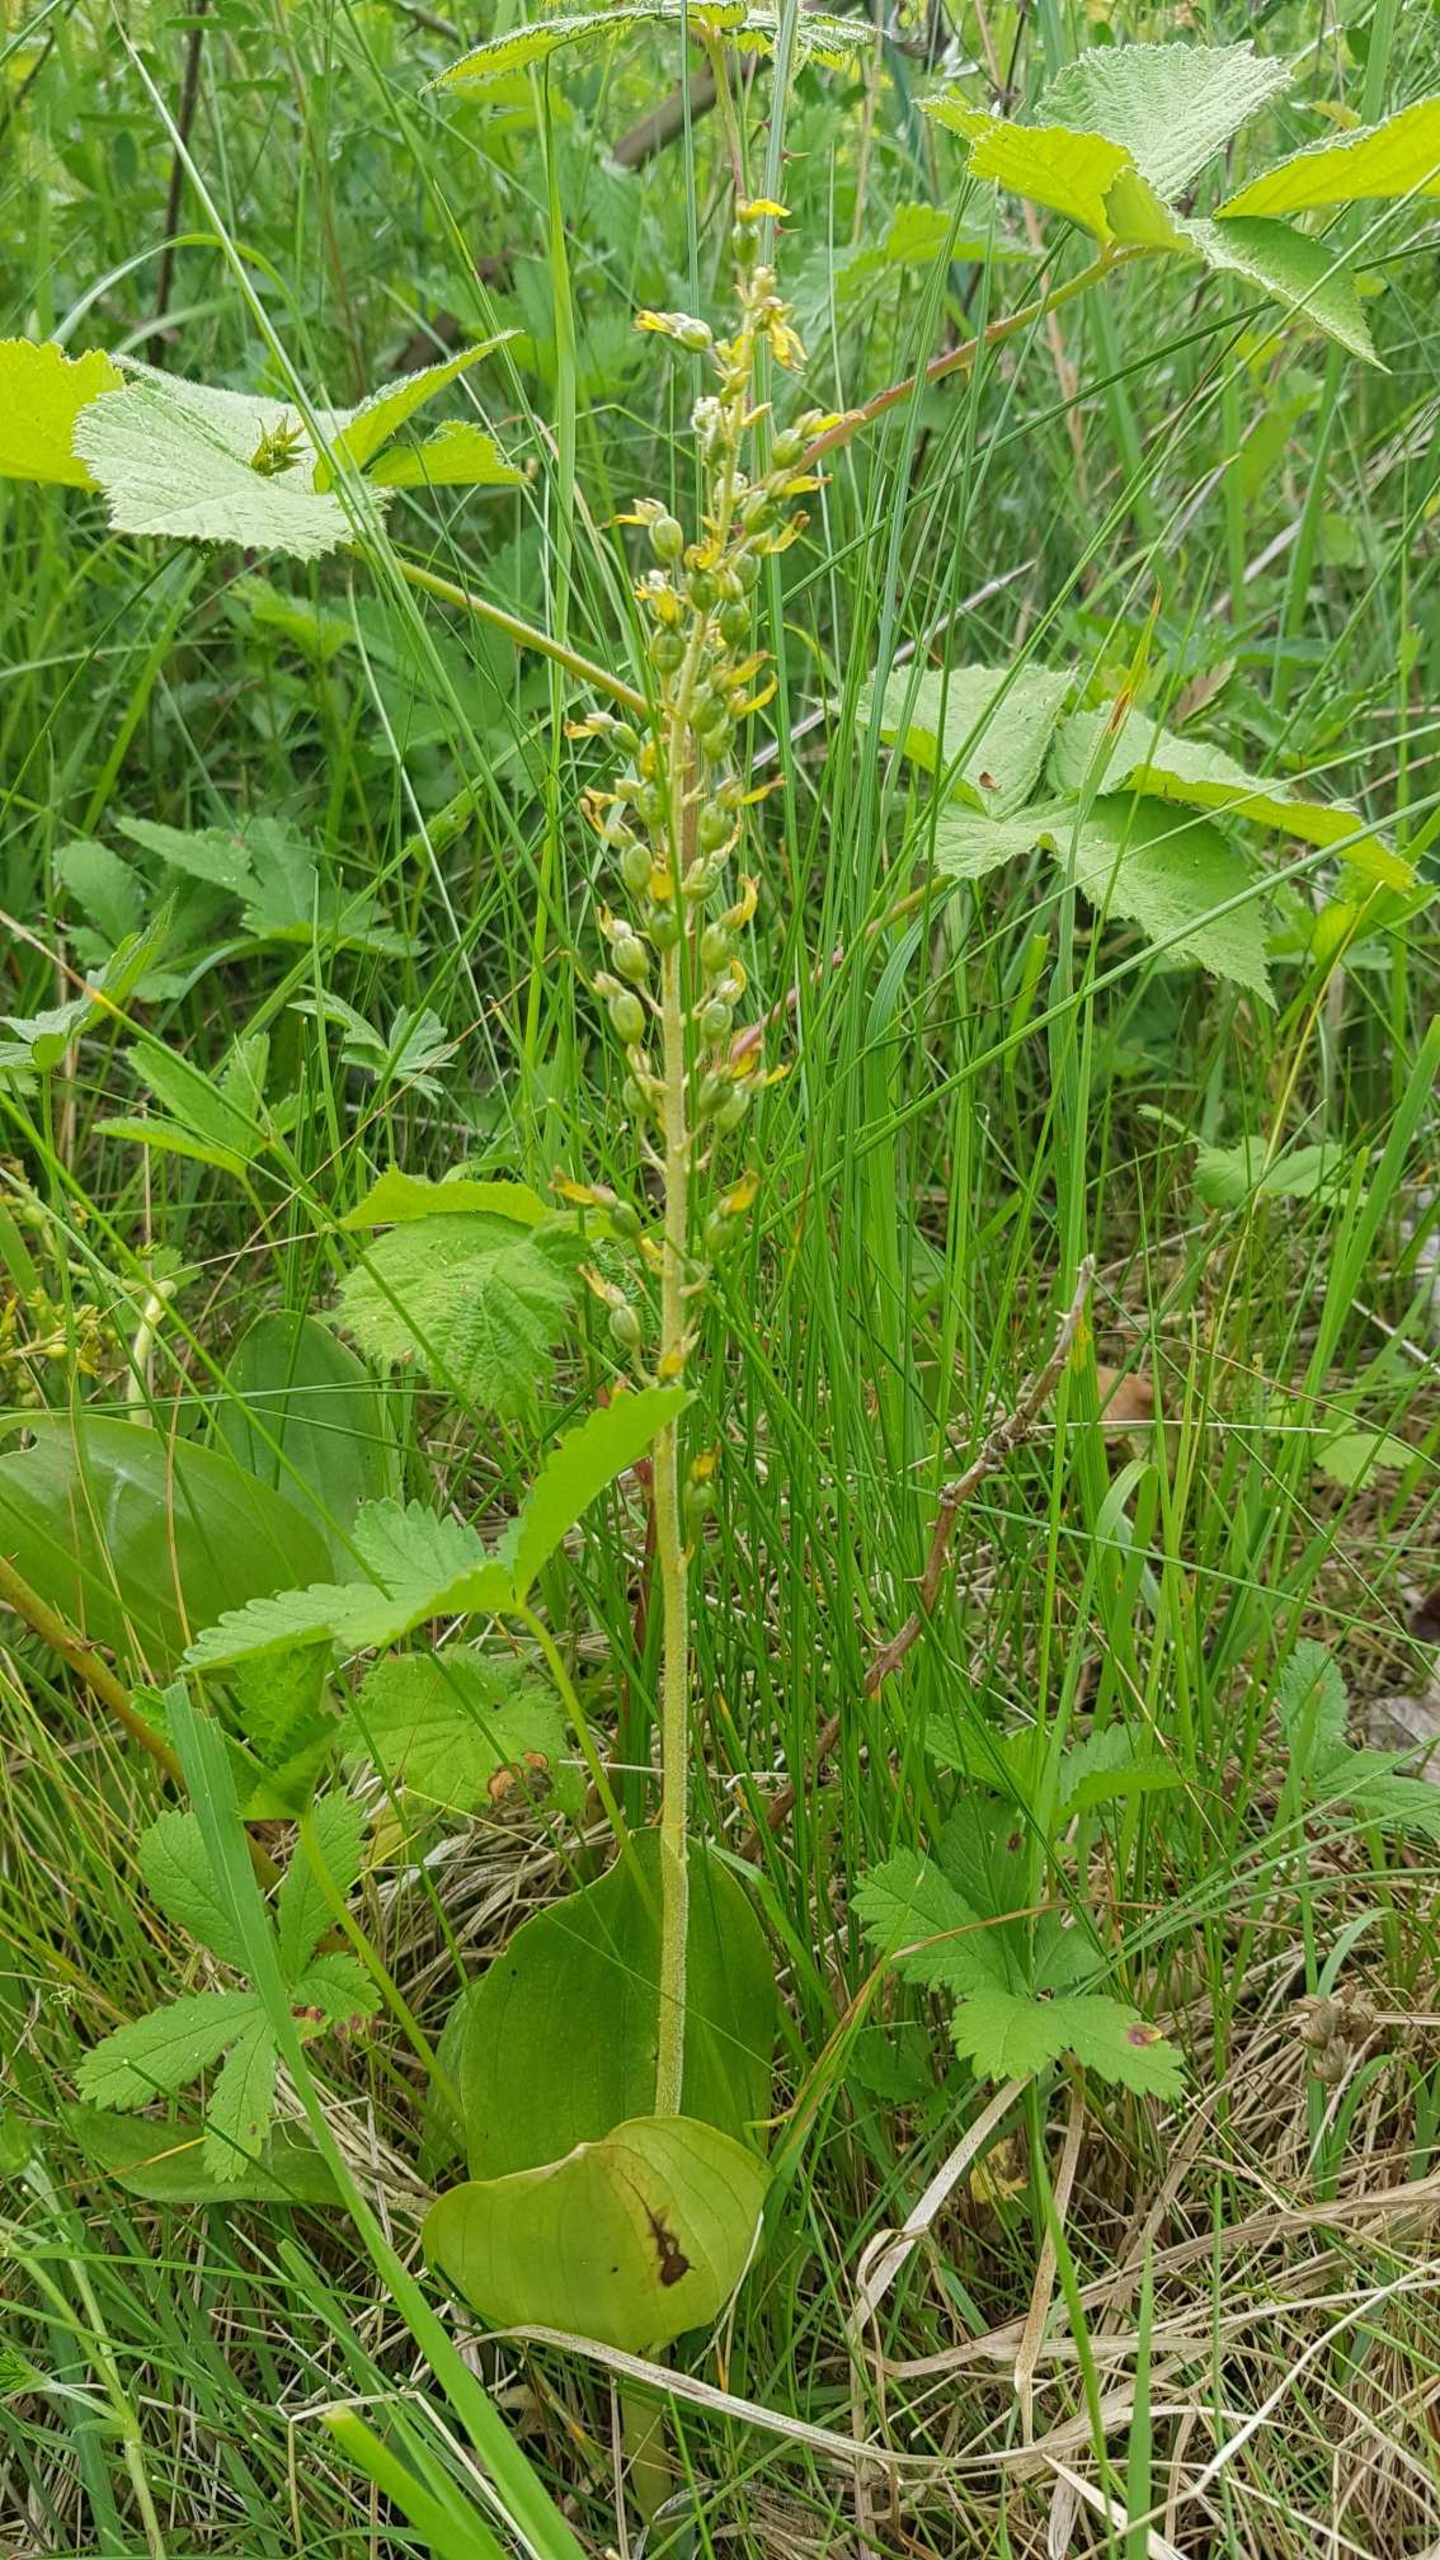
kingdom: Plantae
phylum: Tracheophyta
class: Liliopsida
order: Asparagales
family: Orchidaceae
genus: Neottia
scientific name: Neottia ovata
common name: Ægbladet fliglæbe
